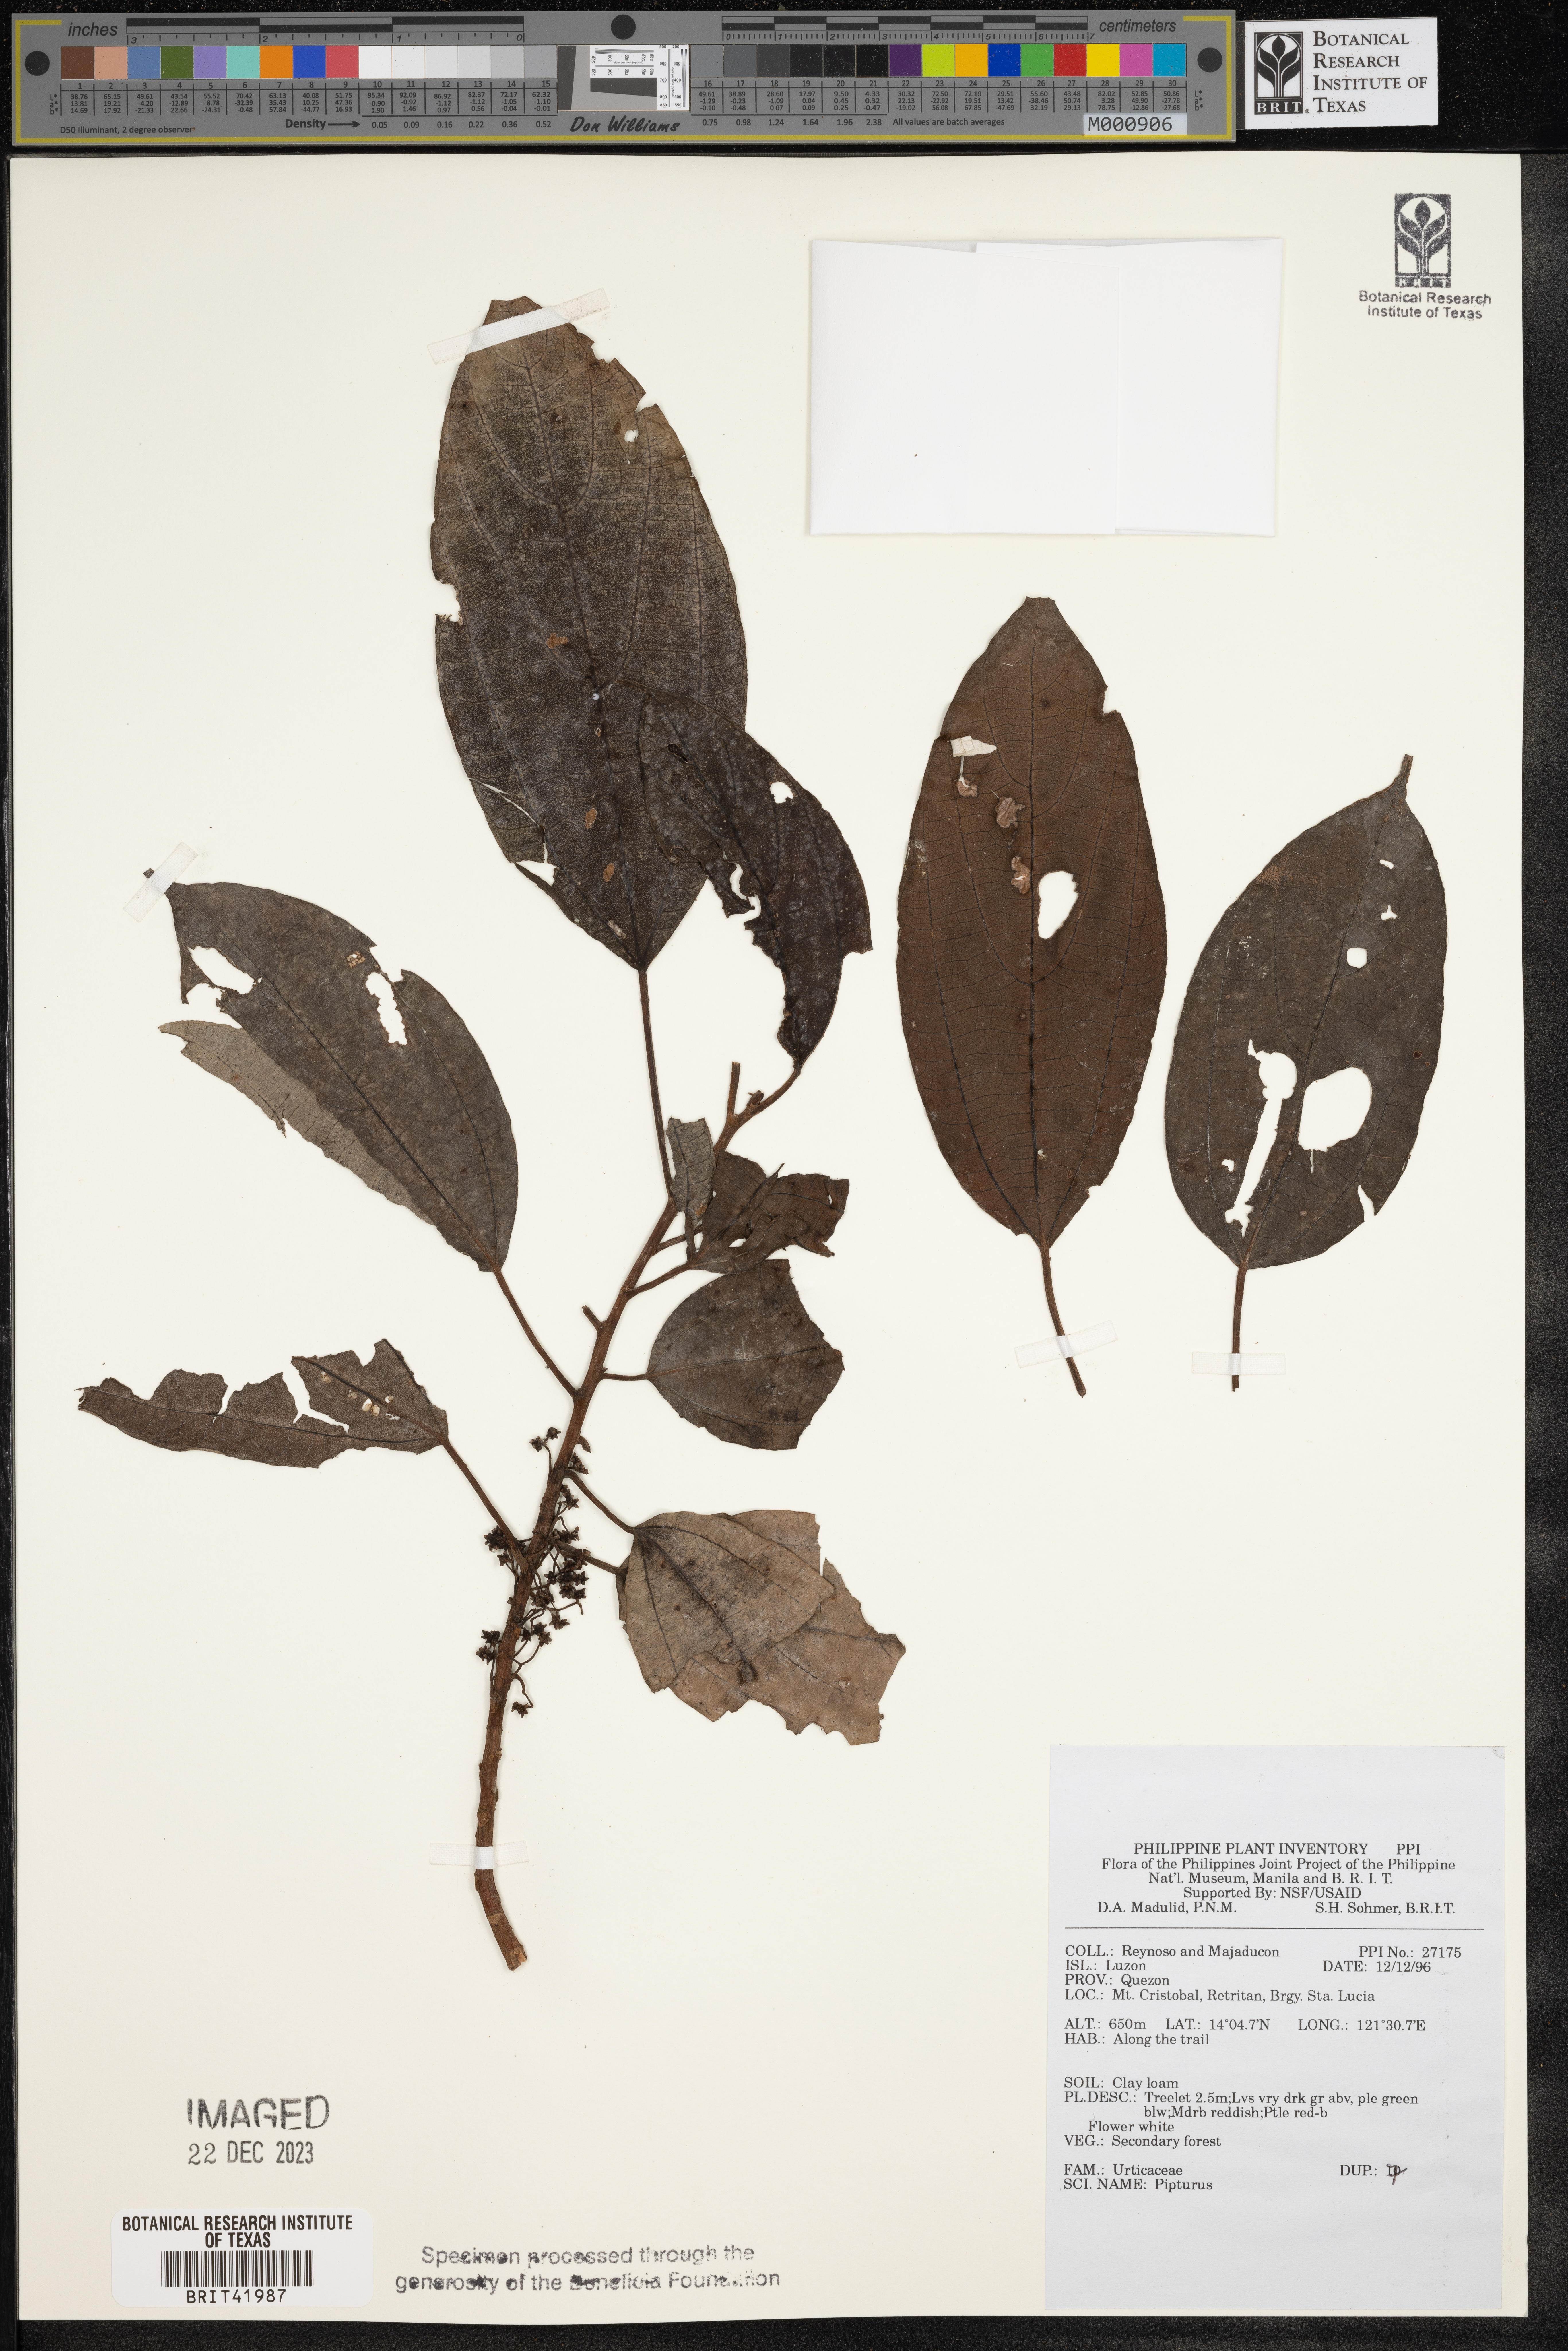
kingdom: Plantae
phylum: Tracheophyta
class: Magnoliopsida
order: Rosales
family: Urticaceae
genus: Pipturus
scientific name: Pipturus
